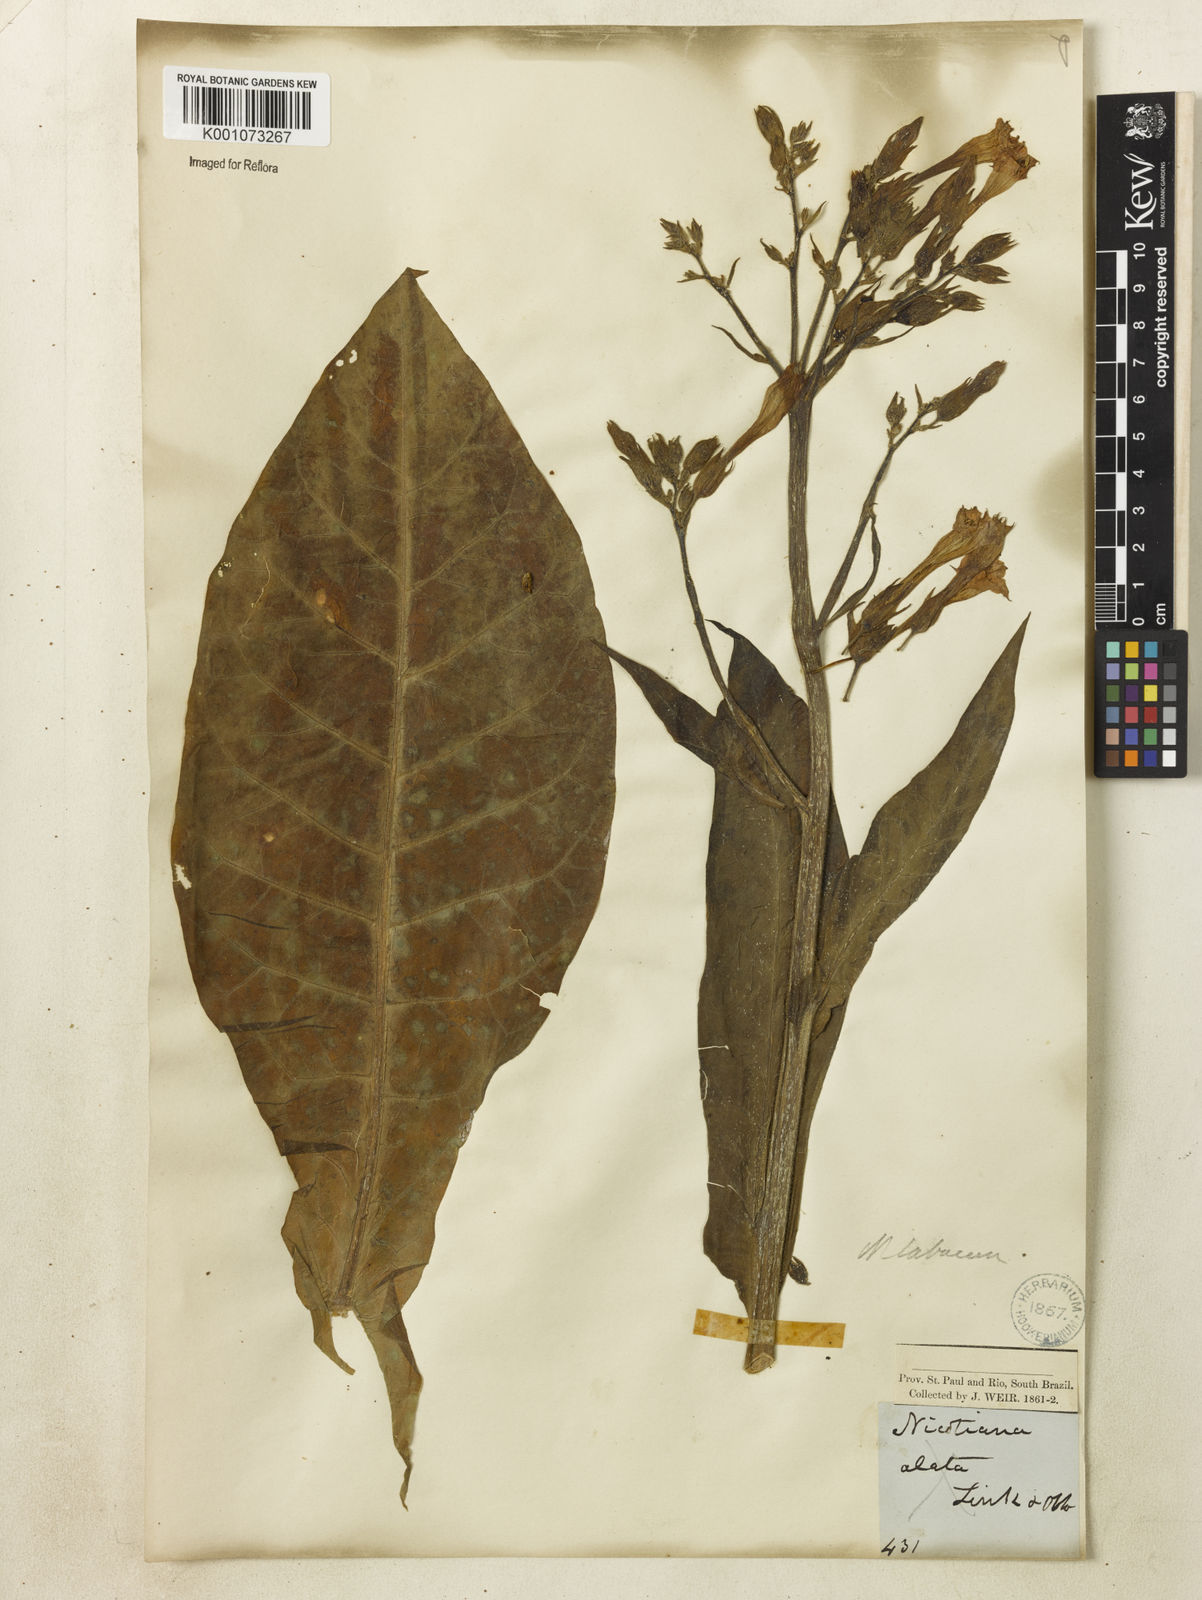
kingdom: Plantae
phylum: Tracheophyta
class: Magnoliopsida
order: Solanales
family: Solanaceae
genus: Nicotiana
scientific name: Nicotiana tabacum
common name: Tobacco
